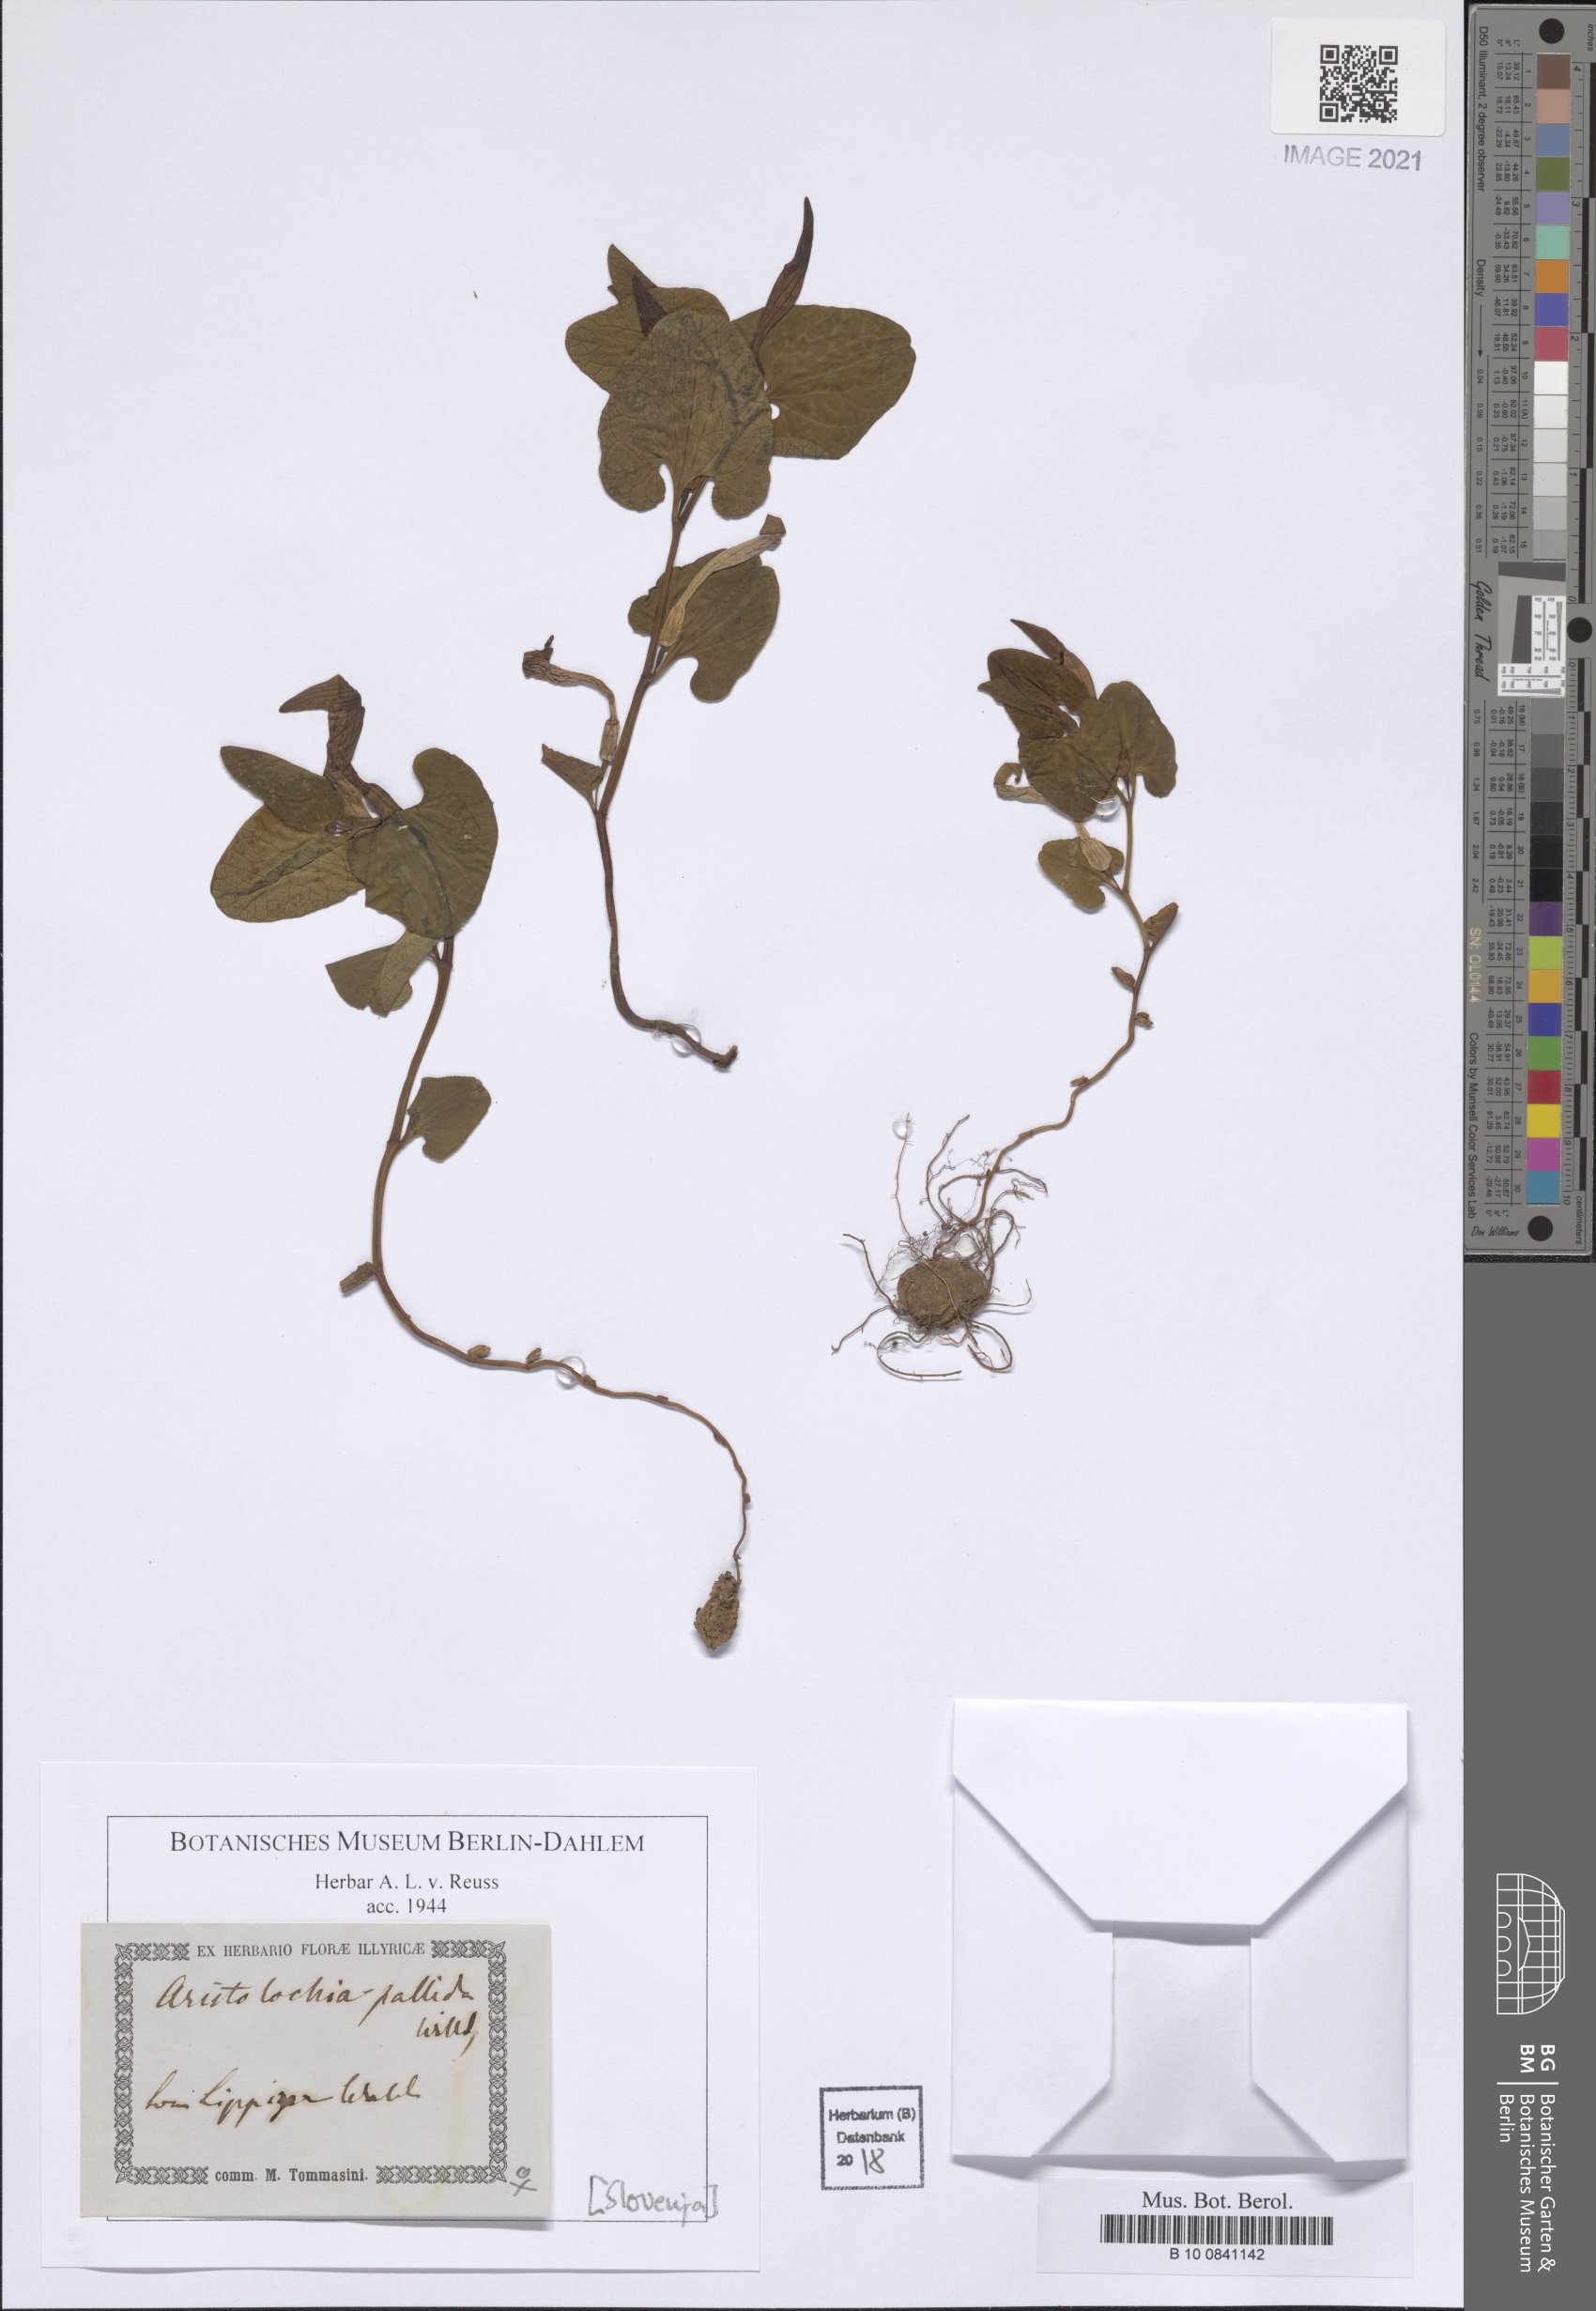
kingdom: Plantae
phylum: Tracheophyta
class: Magnoliopsida
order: Piperales
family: Aristolochiaceae
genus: Aristolochia
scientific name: Aristolochia pallida
